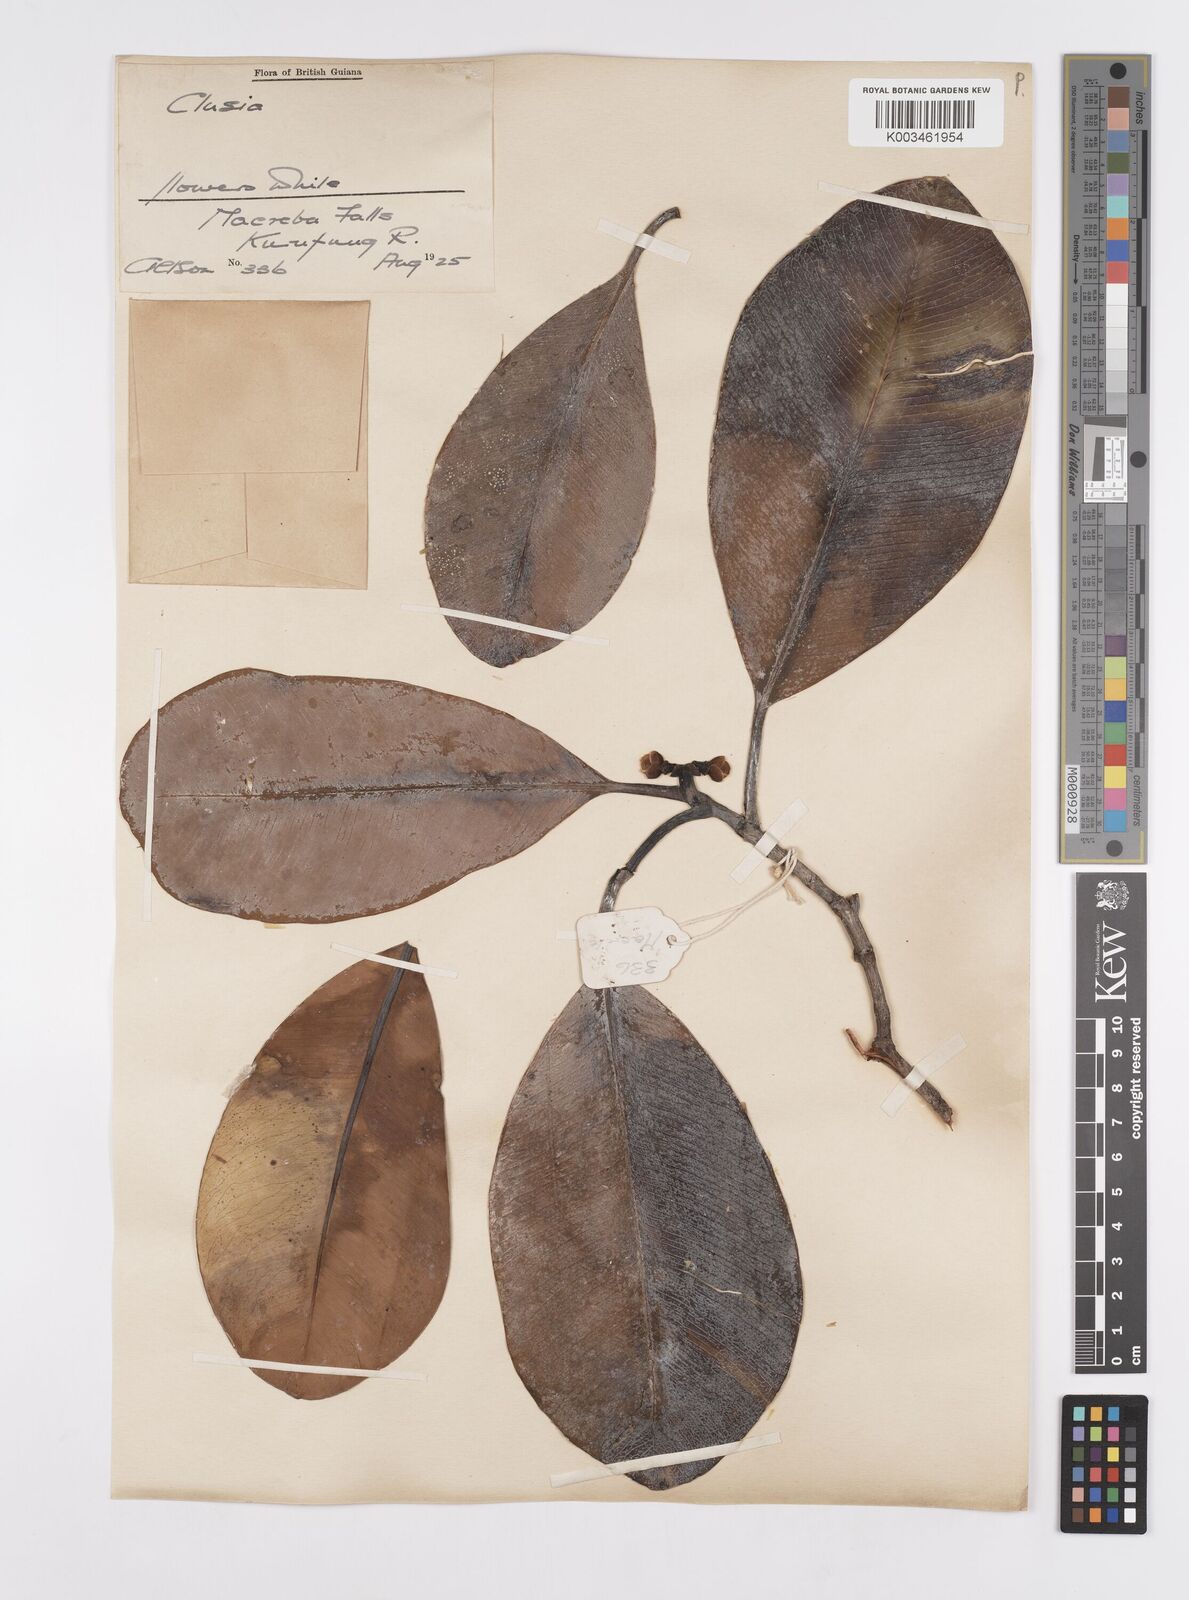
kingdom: Plantae
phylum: Tracheophyta
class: Magnoliopsida
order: Malpighiales
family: Clusiaceae
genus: Clusia
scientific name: Clusia palmicida
